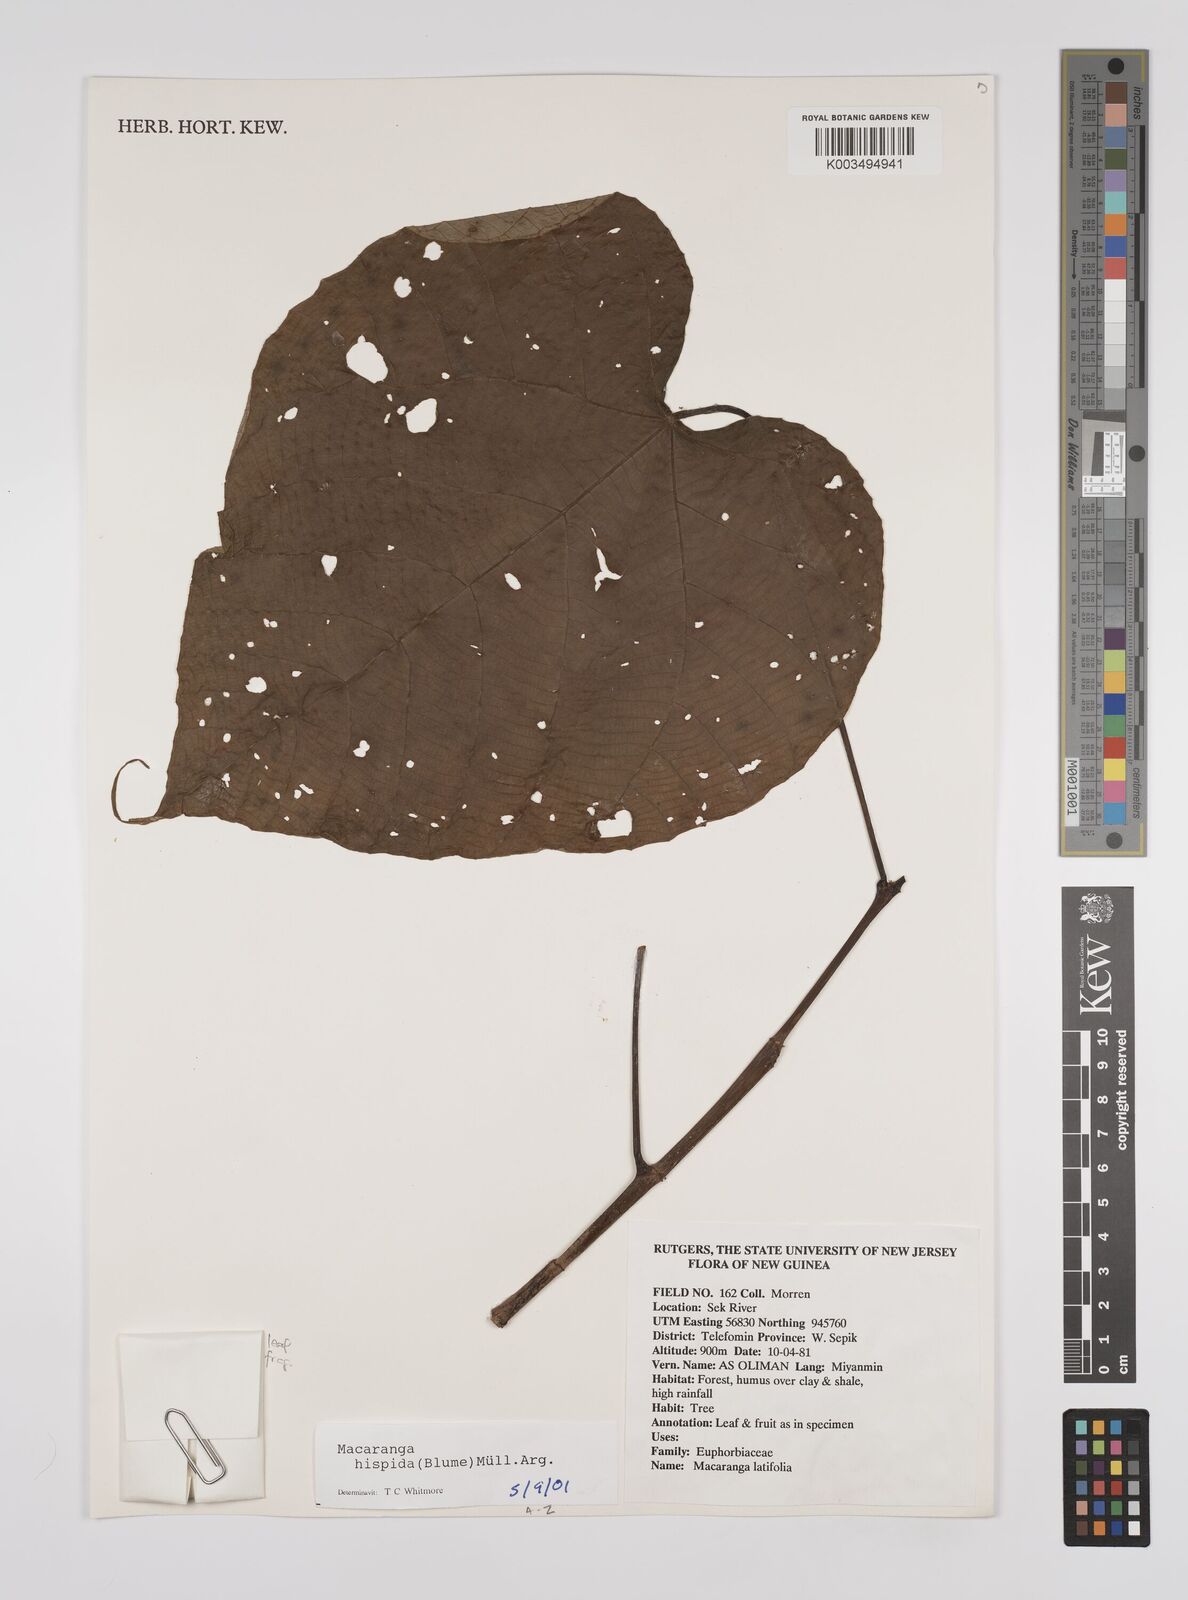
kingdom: Plantae
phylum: Tracheophyta
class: Magnoliopsida
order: Malpighiales
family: Euphorbiaceae
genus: Macaranga
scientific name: Macaranga hispida
